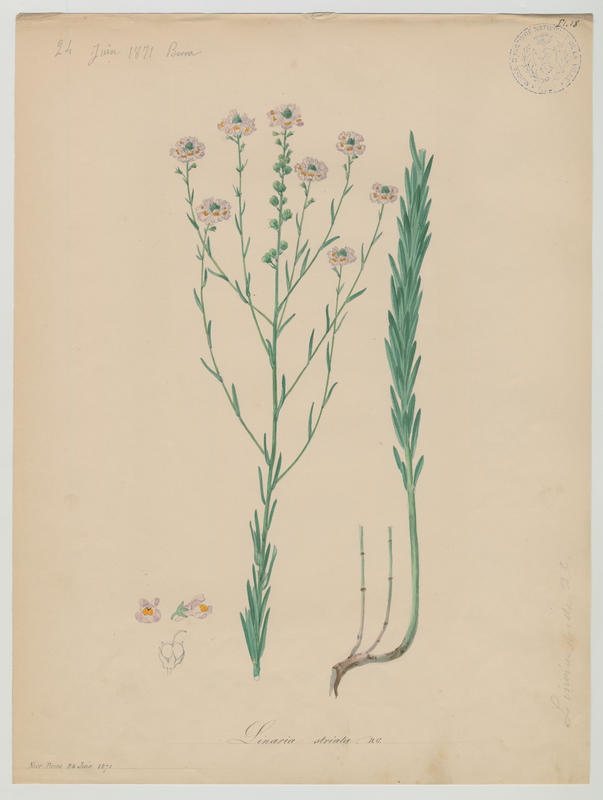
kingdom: Plantae
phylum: Tracheophyta
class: Magnoliopsida
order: Lamiales
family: Plantaginaceae
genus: Linaria
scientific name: Linaria repens
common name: Pale toadflax
